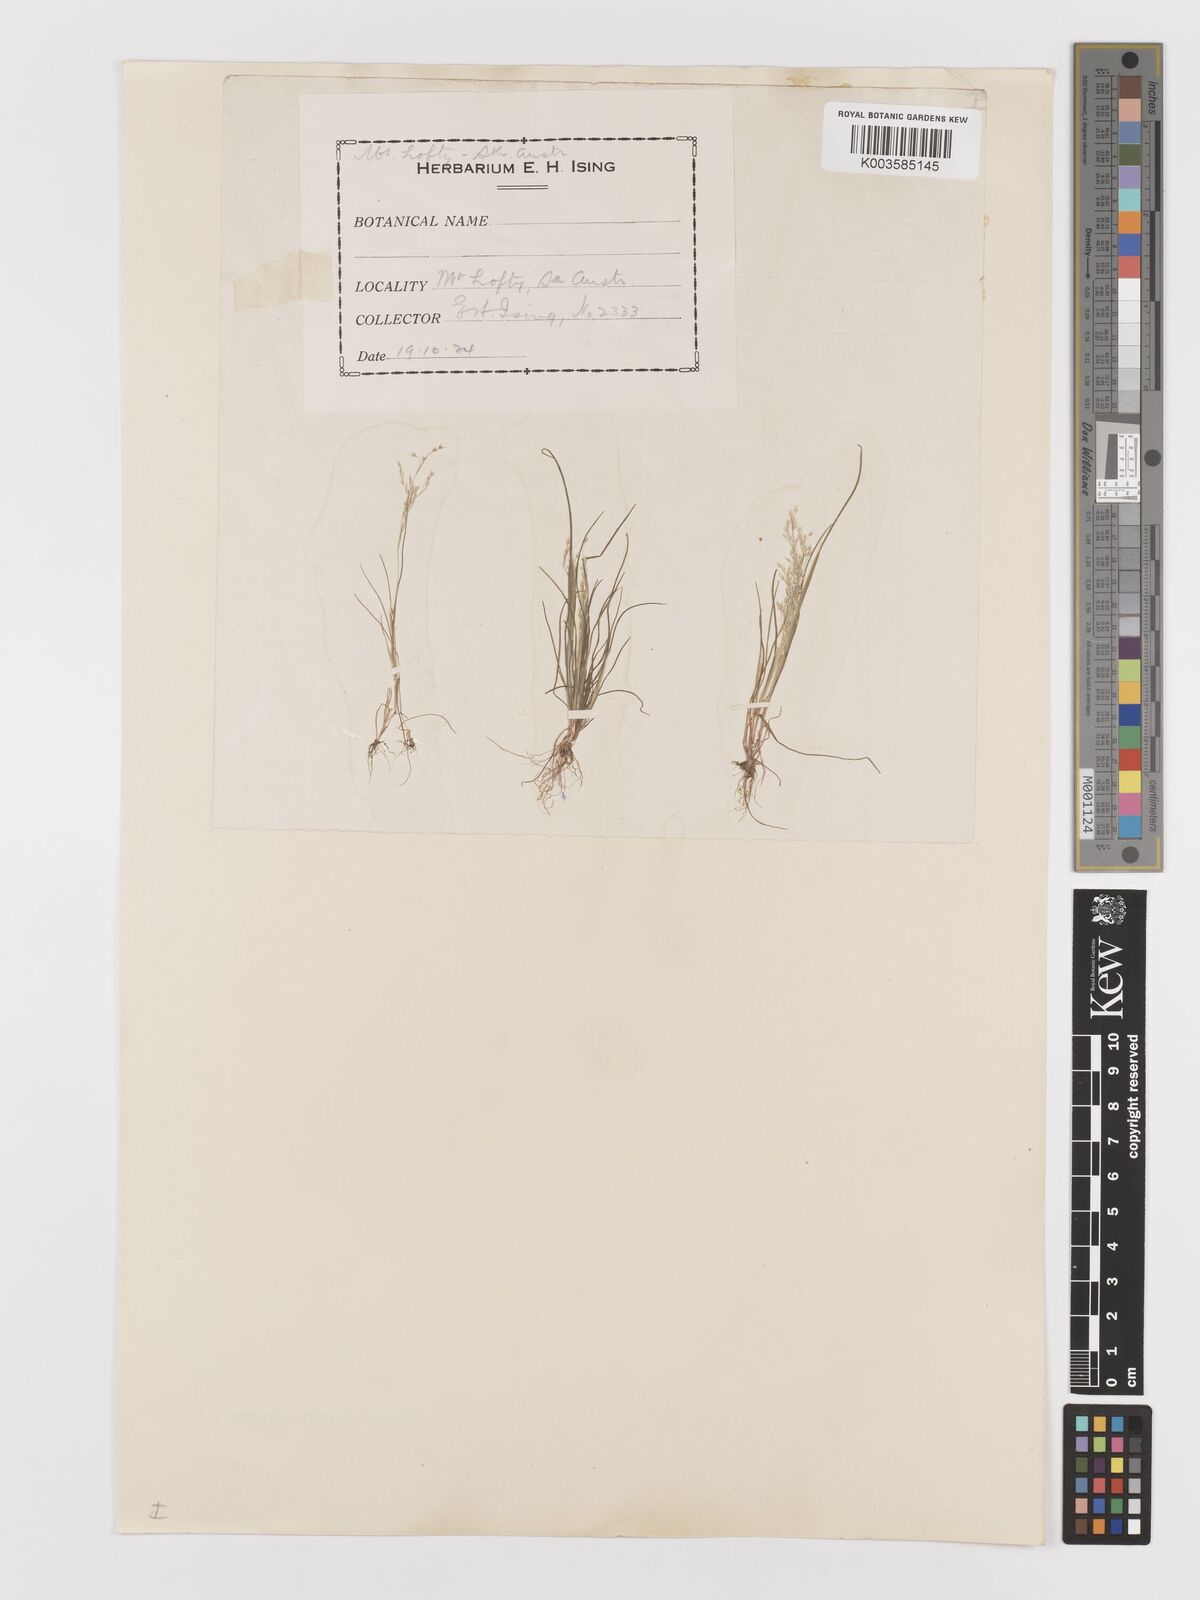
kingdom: Plantae
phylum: Tracheophyta
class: Liliopsida
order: Poales
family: Poaceae
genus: Aira
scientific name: Aira cupaniana
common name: Silver hairgrass
